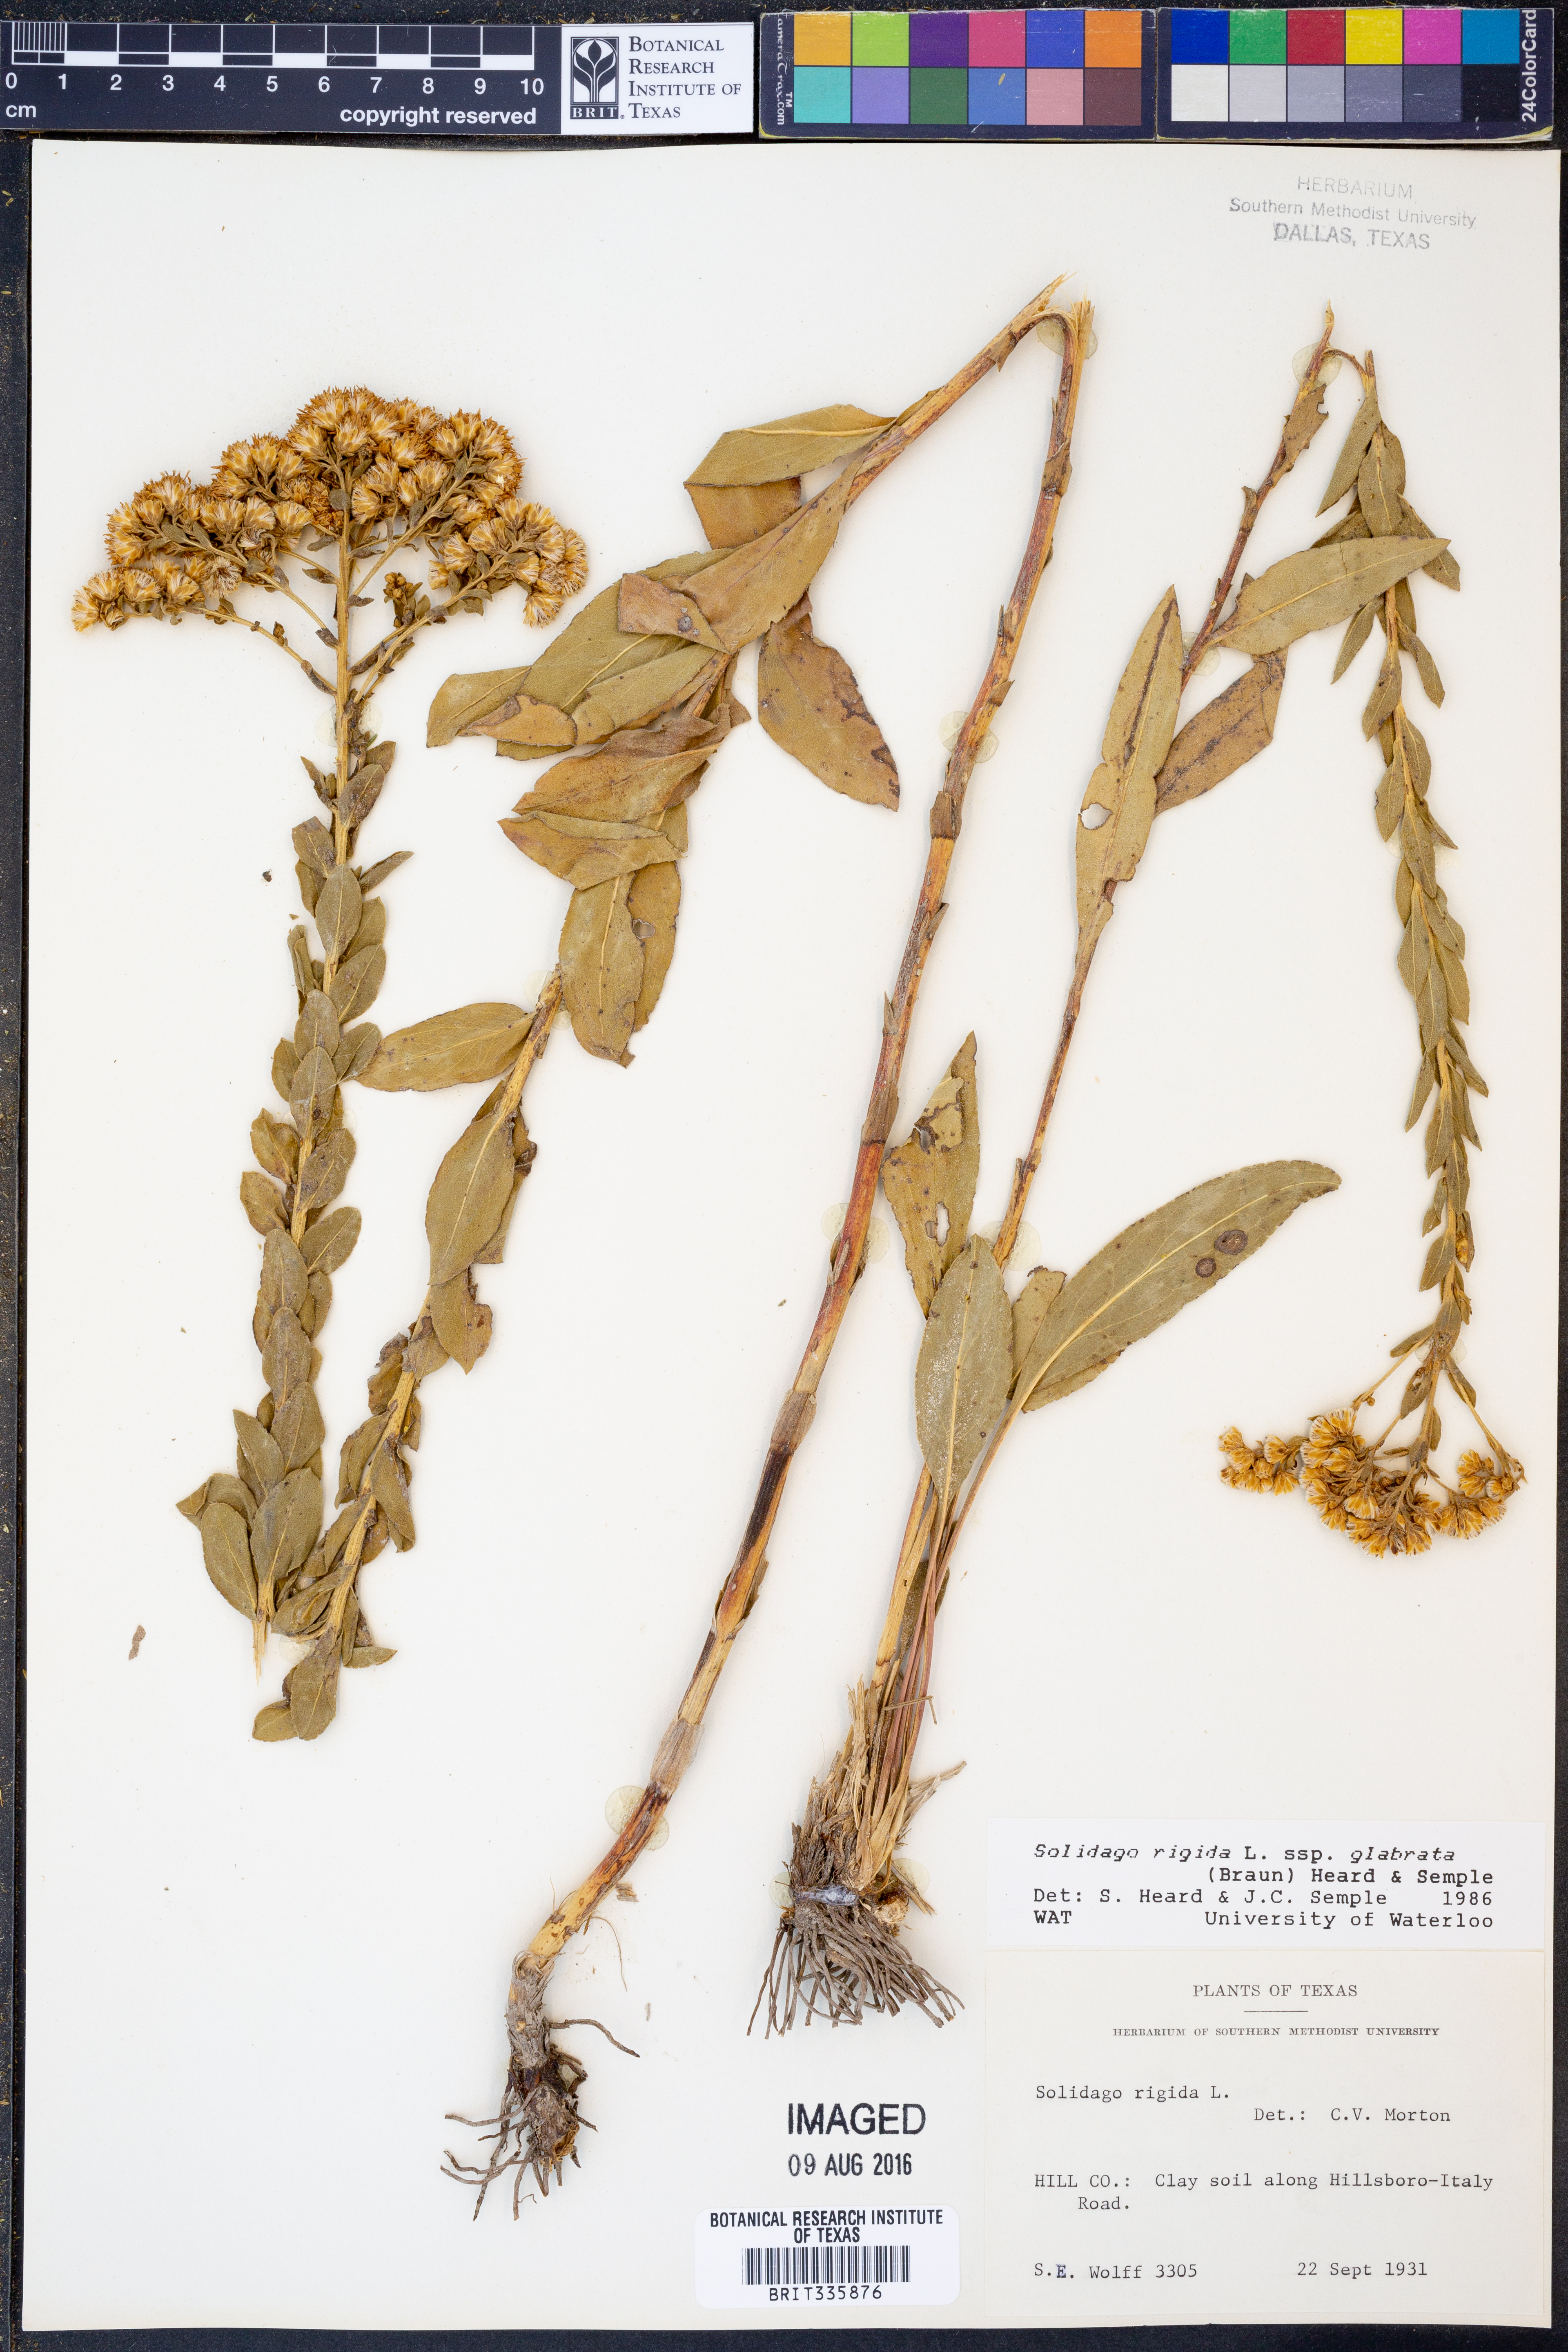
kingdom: Plantae
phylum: Tracheophyta
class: Magnoliopsida
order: Asterales
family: Asteraceae
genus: Solidago
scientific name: Solidago rigida
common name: Rigid goldenrod
